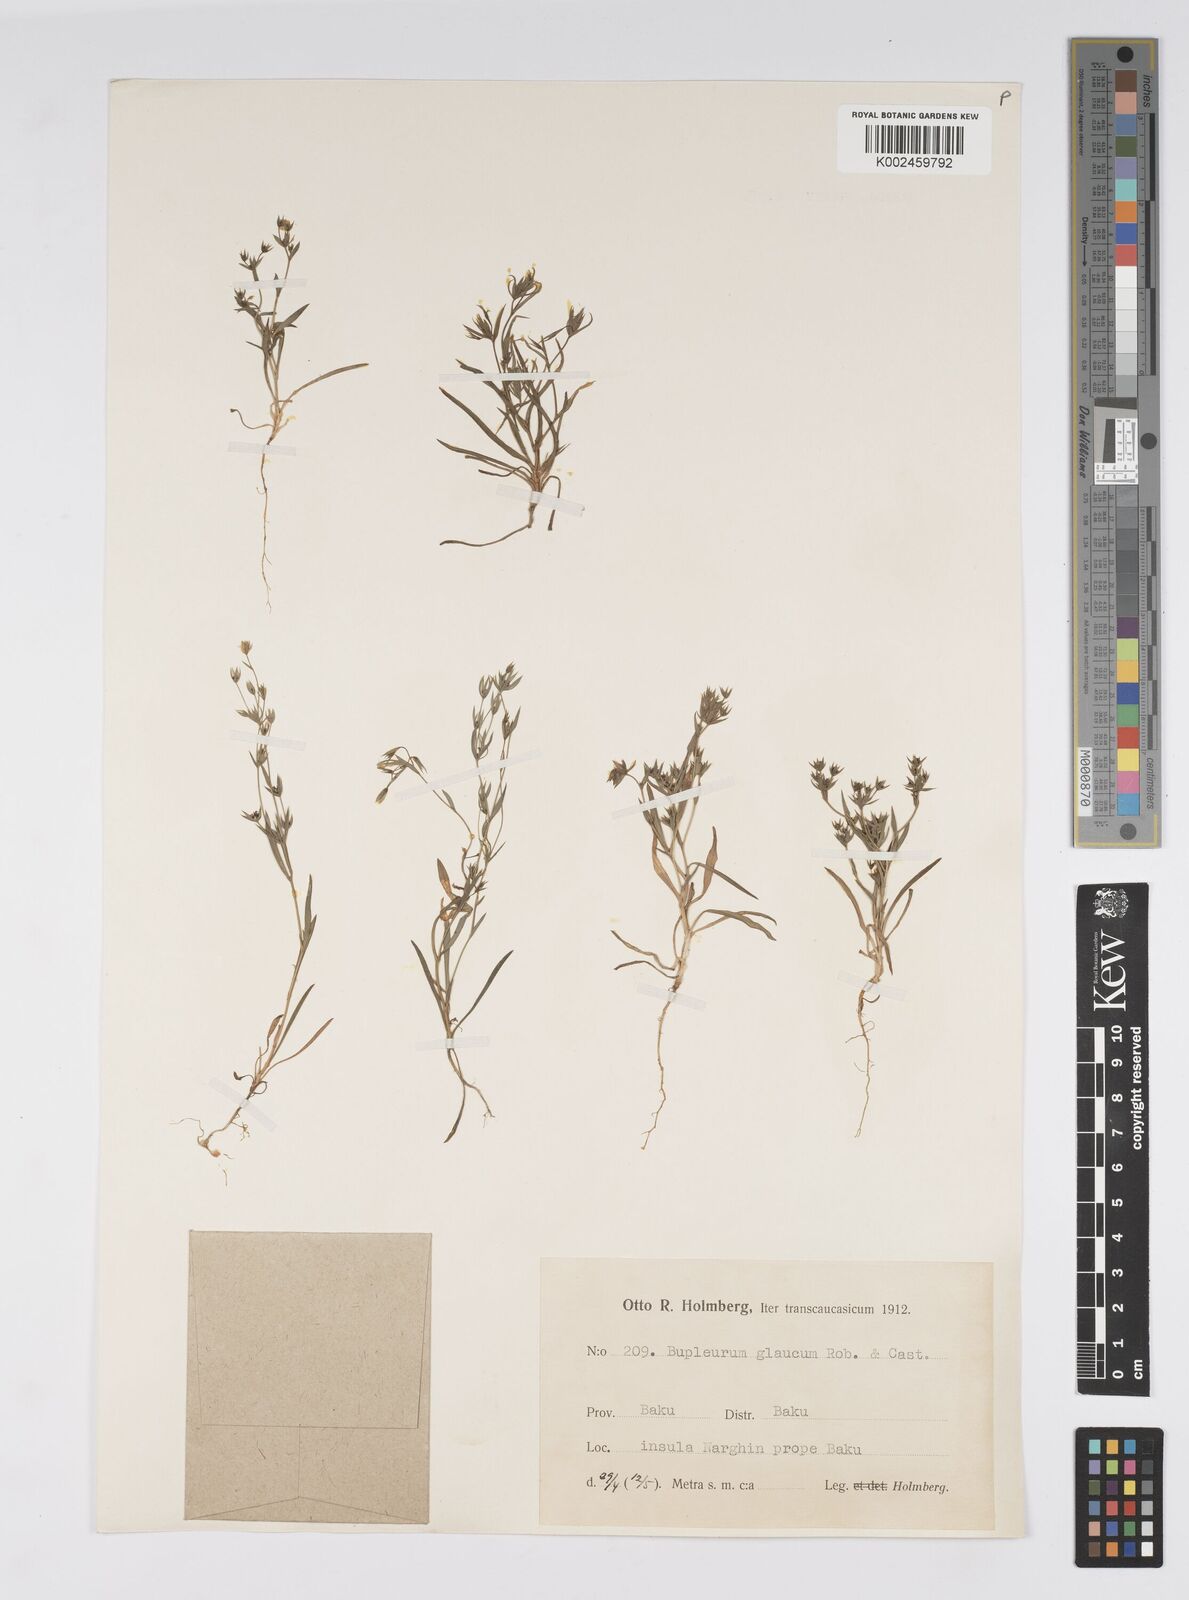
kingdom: Plantae
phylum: Tracheophyta
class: Magnoliopsida
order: Apiales
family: Apiaceae
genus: Bupleurum
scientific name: Bupleurum semicompositum
